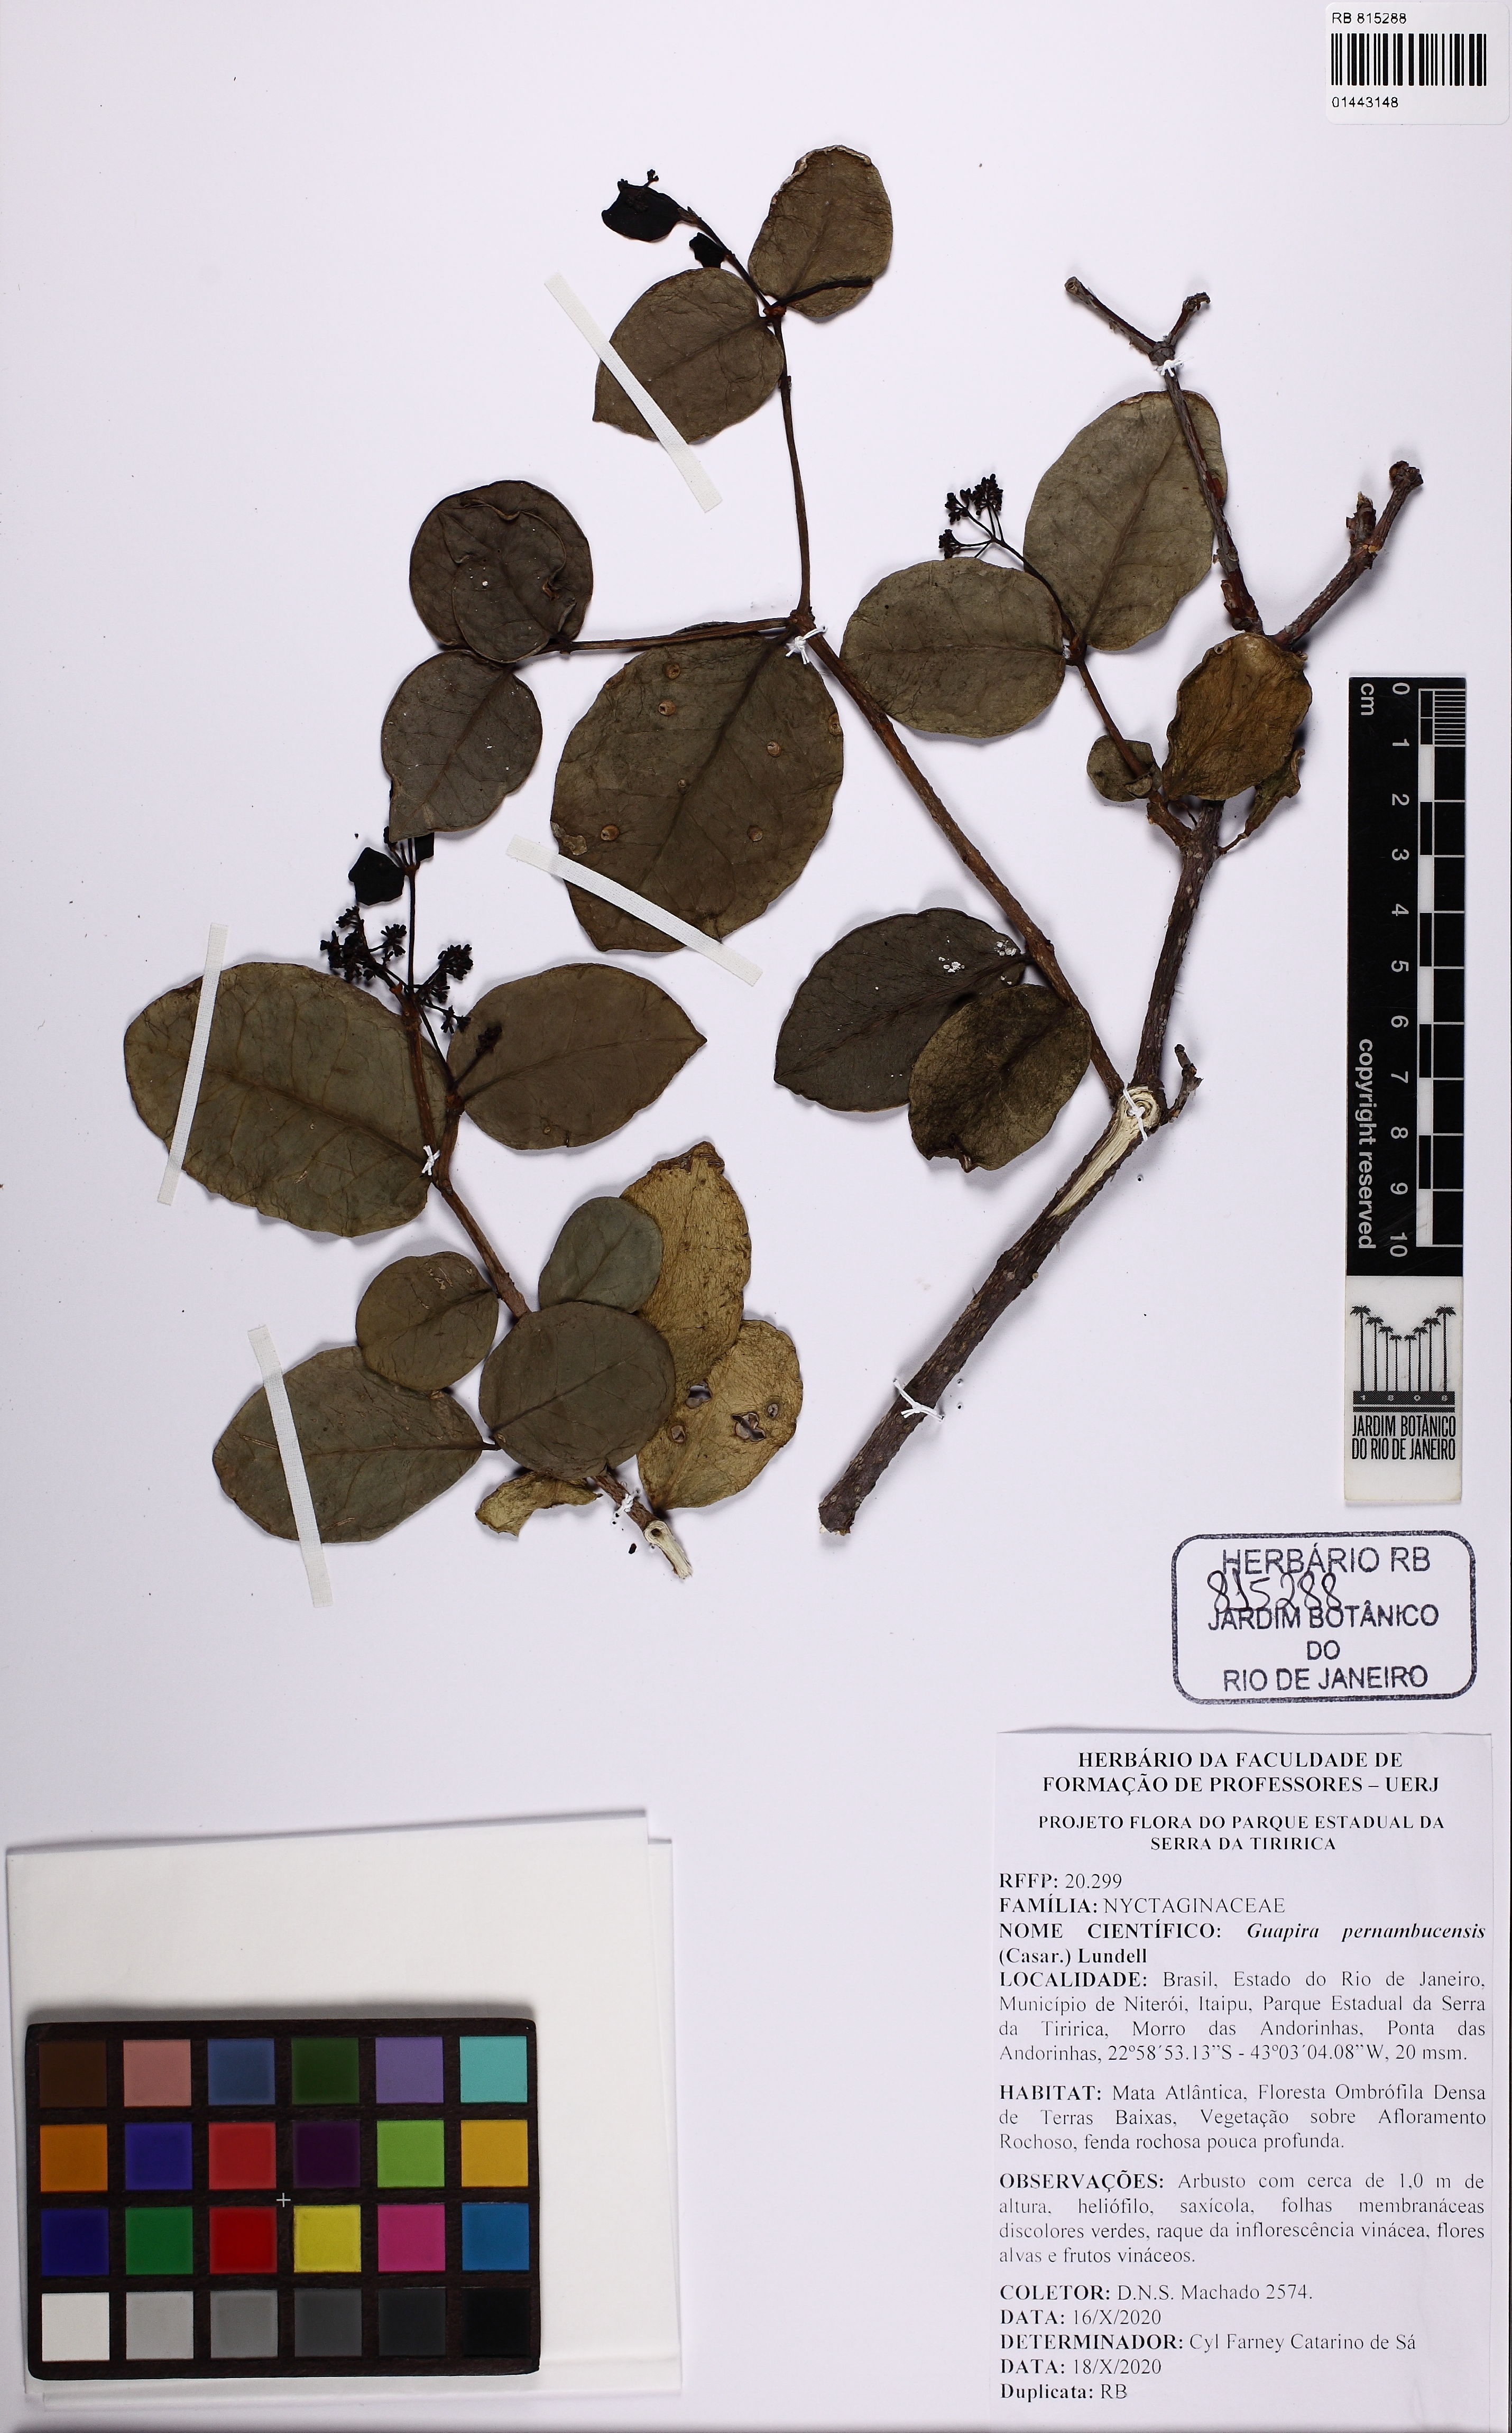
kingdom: Plantae
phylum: Tracheophyta
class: Magnoliopsida
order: Caryophyllales
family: Nyctaginaceae
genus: Guapira
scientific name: Guapira pernambucensis
